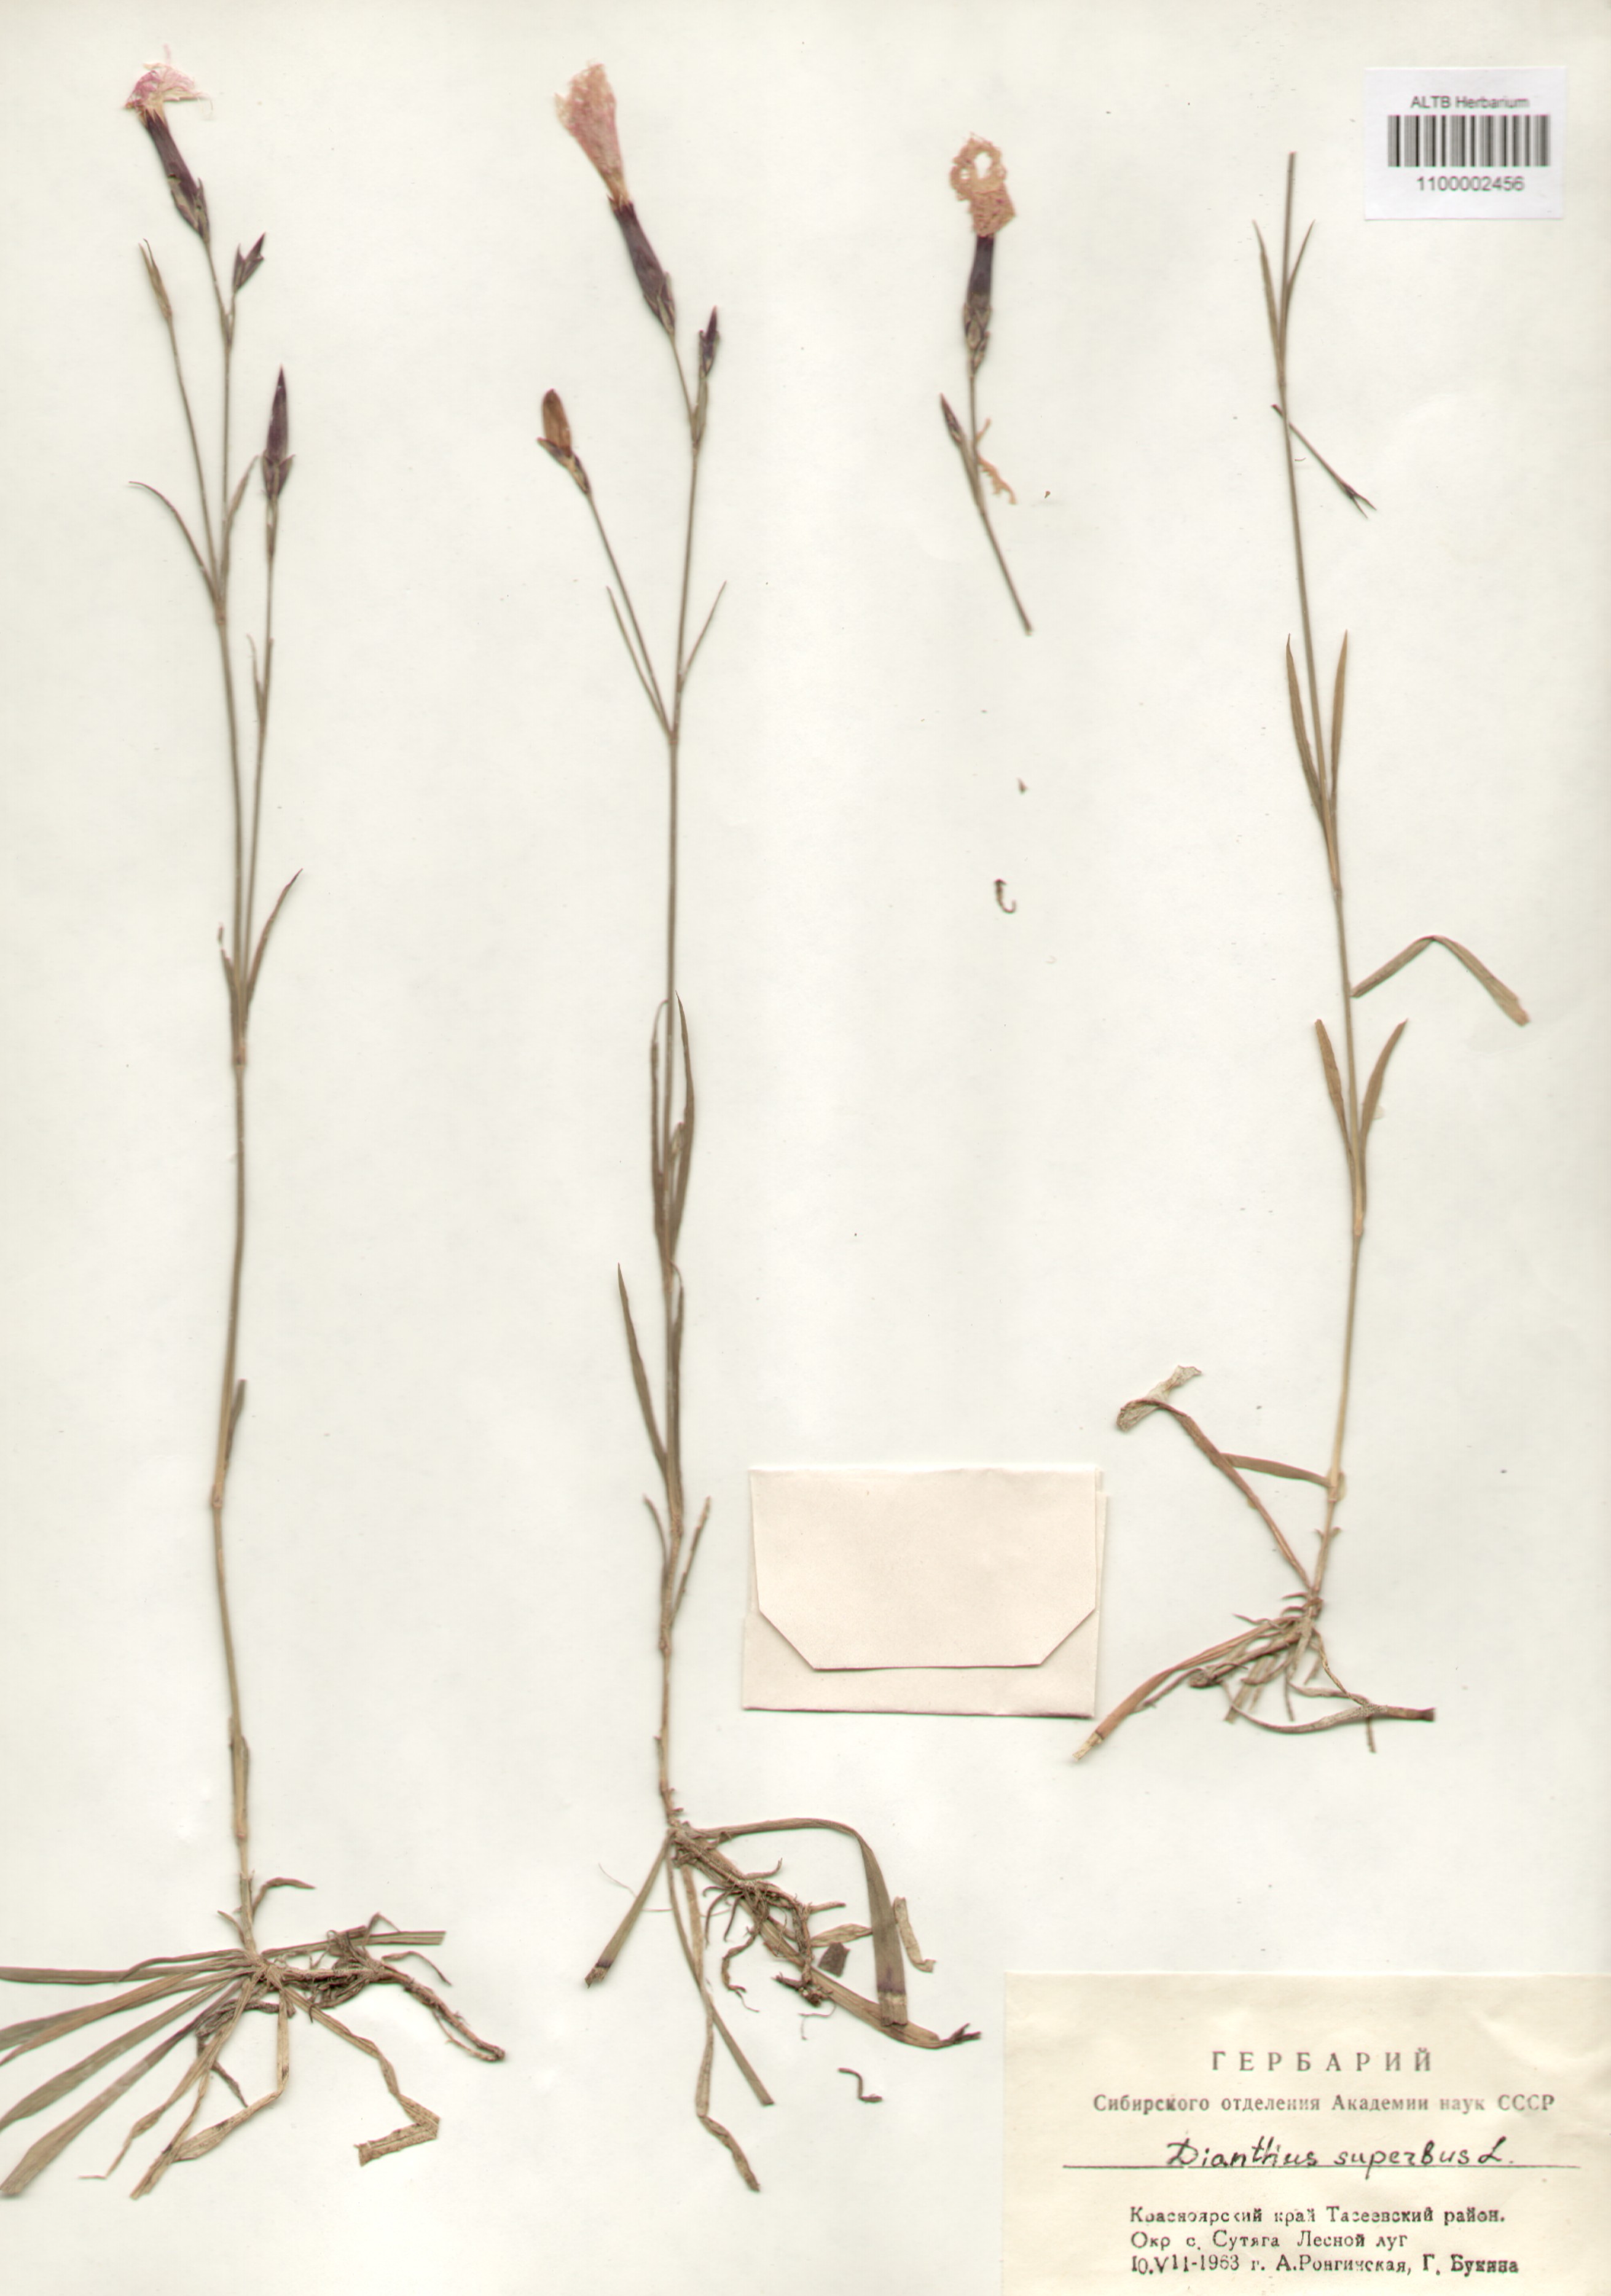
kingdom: Plantae
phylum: Tracheophyta
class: Magnoliopsida
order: Caryophyllales
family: Caryophyllaceae
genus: Dianthus
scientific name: Dianthus superbus
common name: Fringed pink
